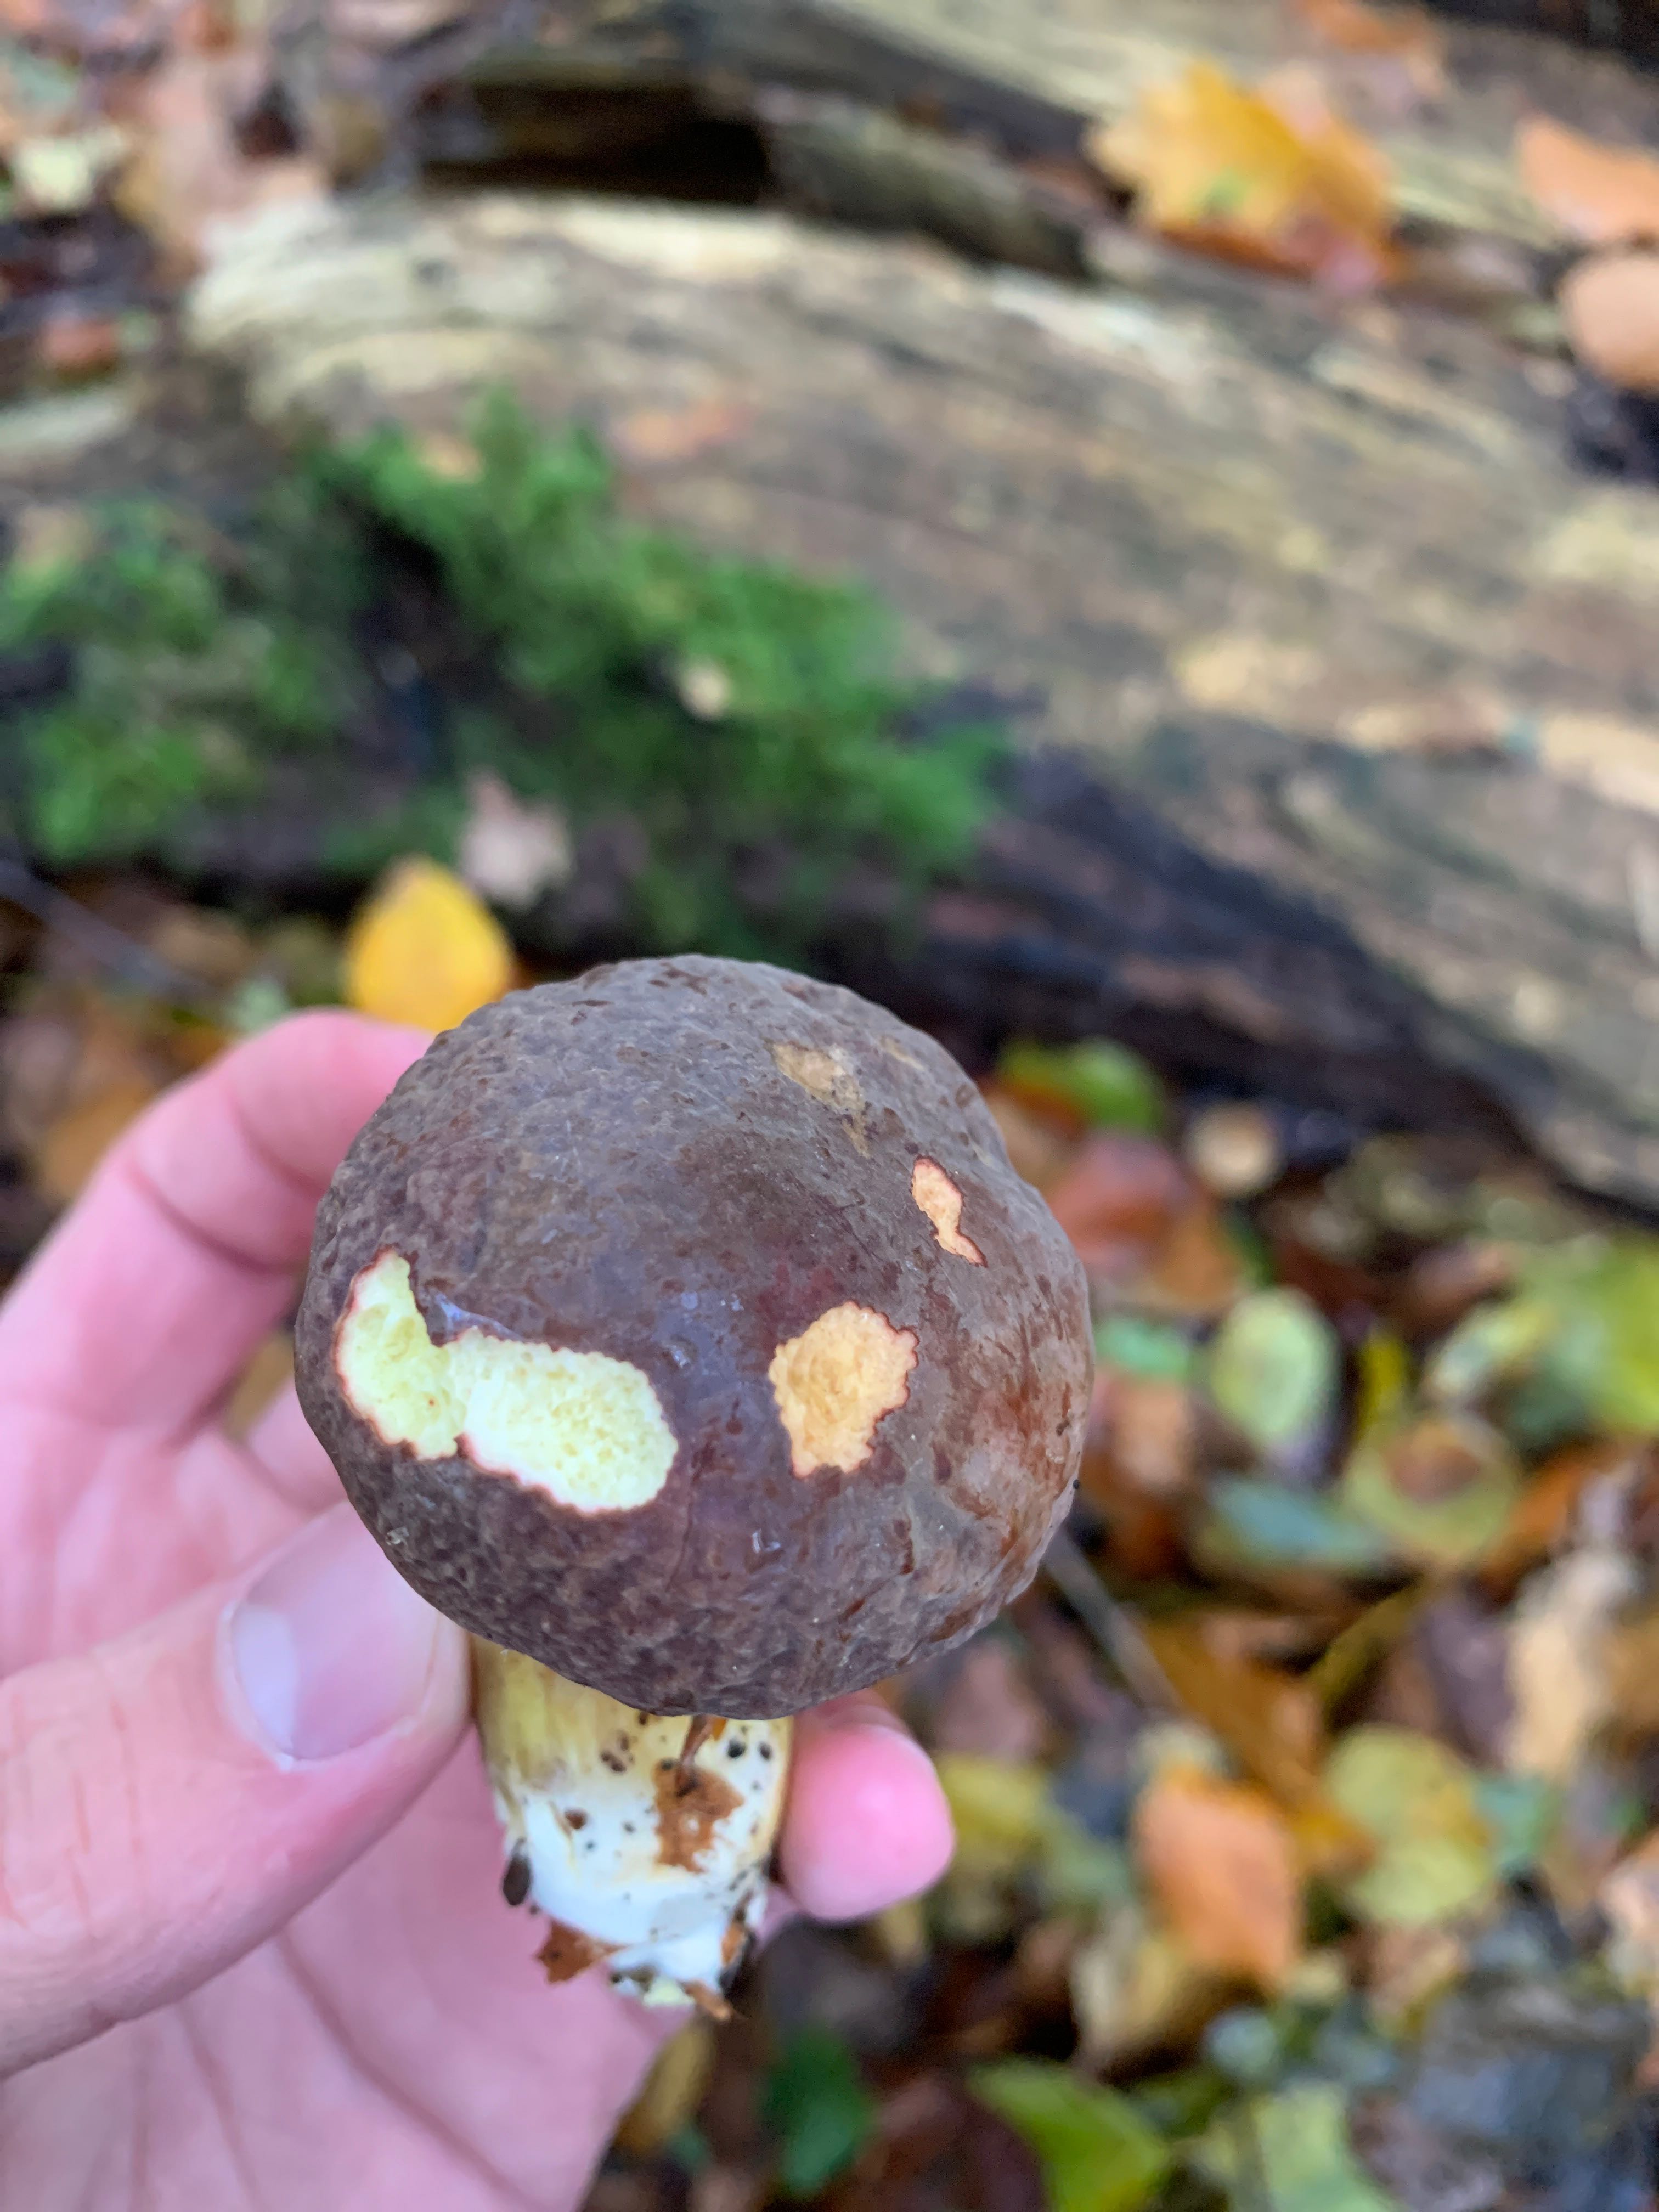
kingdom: Fungi
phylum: Basidiomycota
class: Agaricomycetes
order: Boletales
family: Boletaceae
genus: Xerocomellus
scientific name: Xerocomellus pruinatus
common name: dugget rørhat
